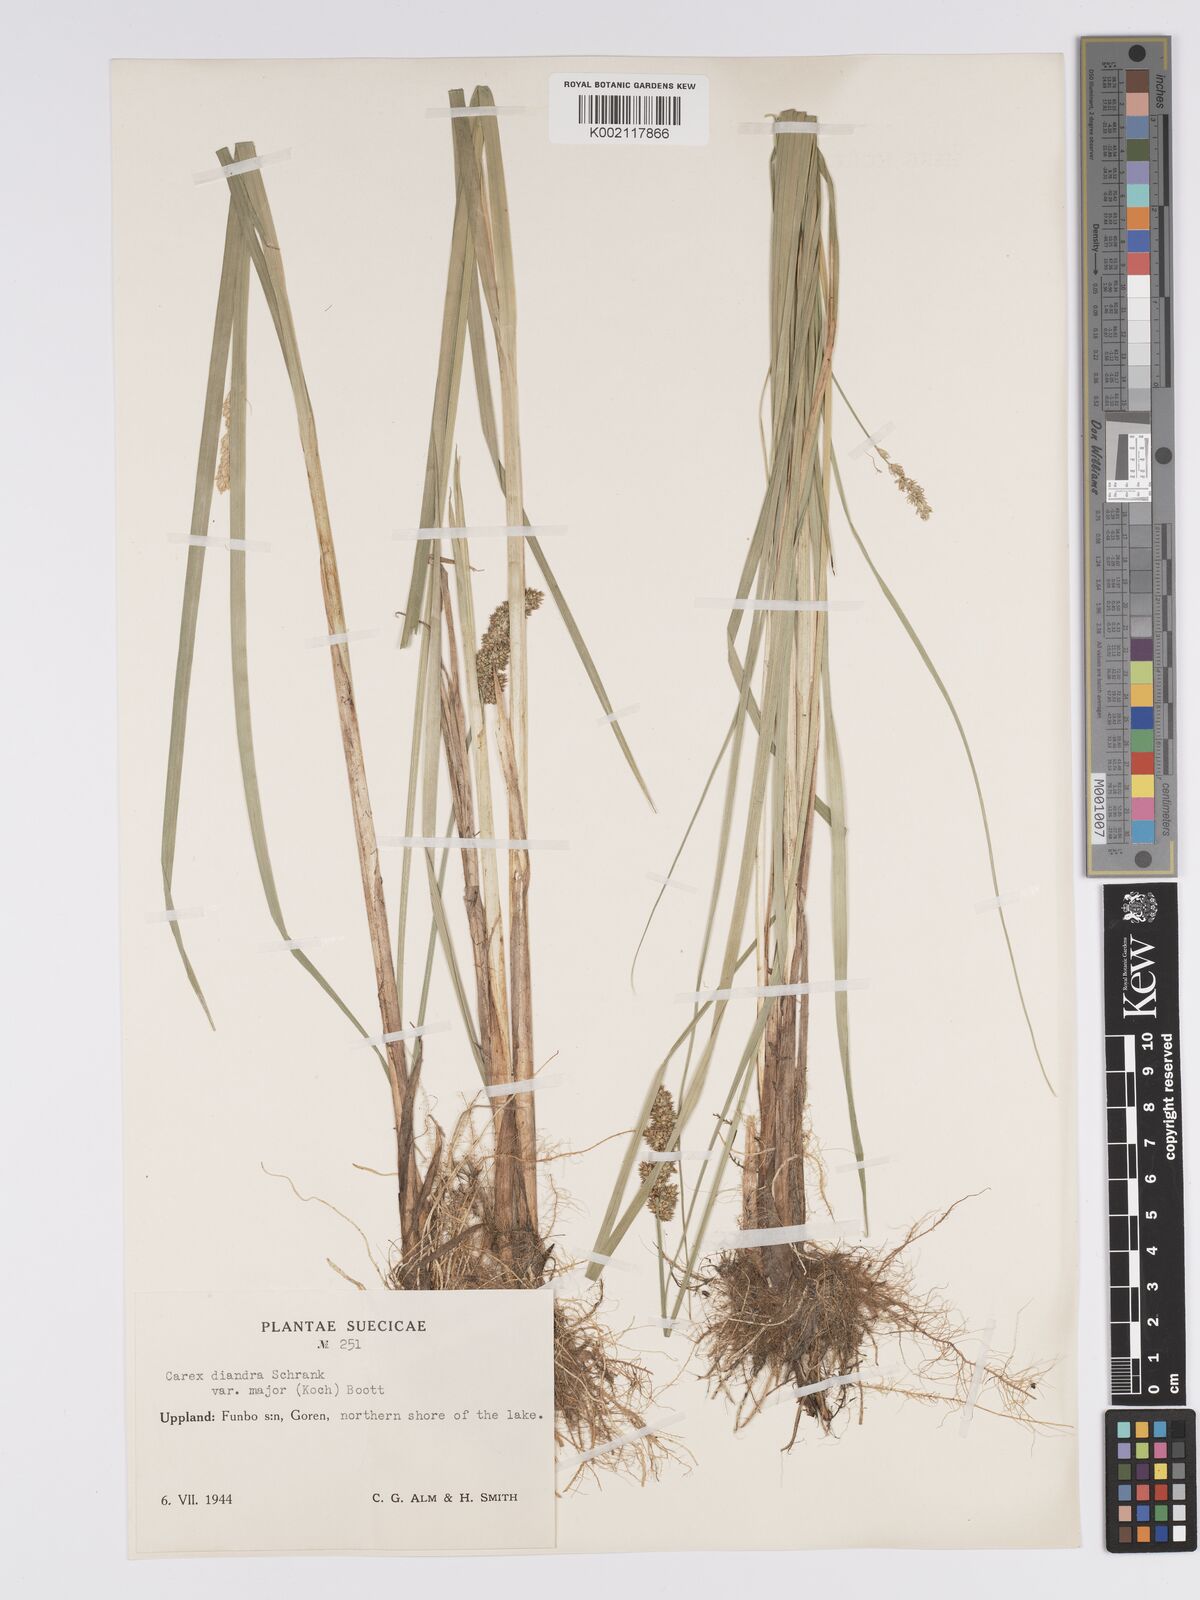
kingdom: Plantae
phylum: Tracheophyta
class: Liliopsida
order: Poales
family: Cyperaceae
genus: Carex
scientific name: Carex diandra
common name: Lesser tussock-sedge
